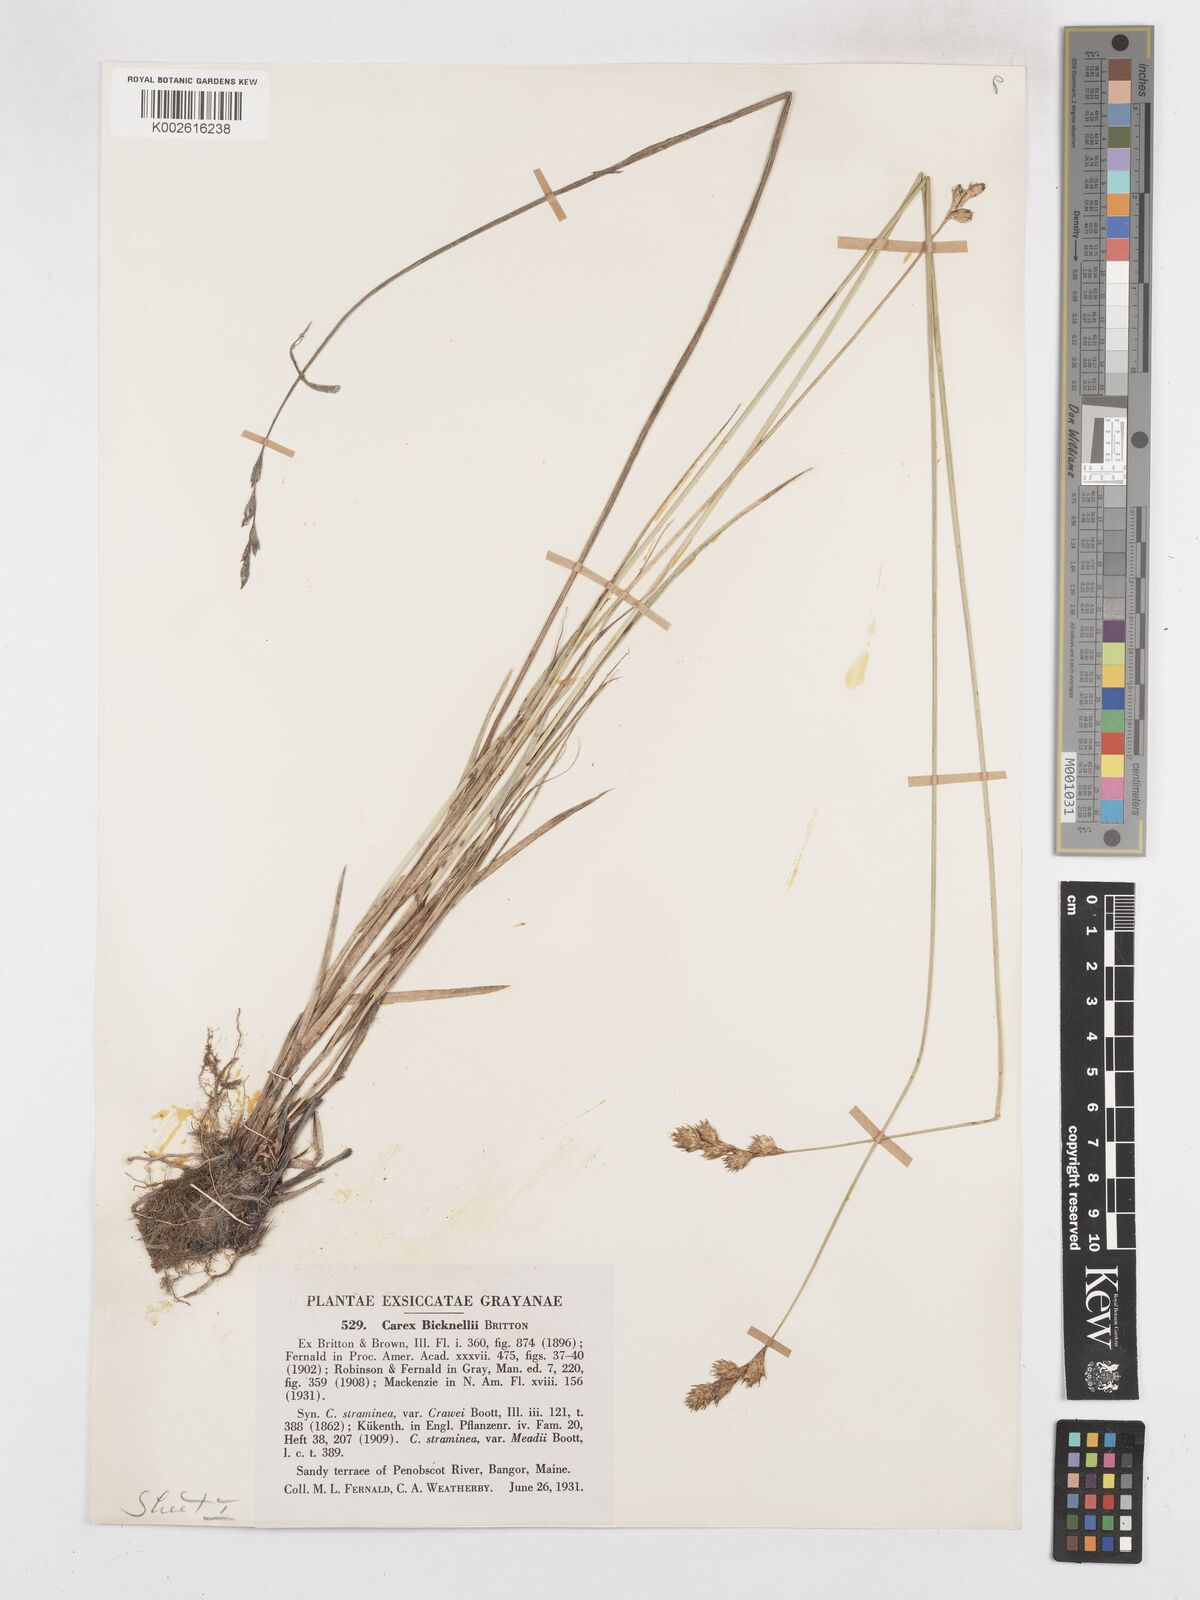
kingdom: Plantae
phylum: Tracheophyta
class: Liliopsida
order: Poales
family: Cyperaceae
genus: Carex
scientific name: Carex bicknellii
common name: Bicknell's sedge
